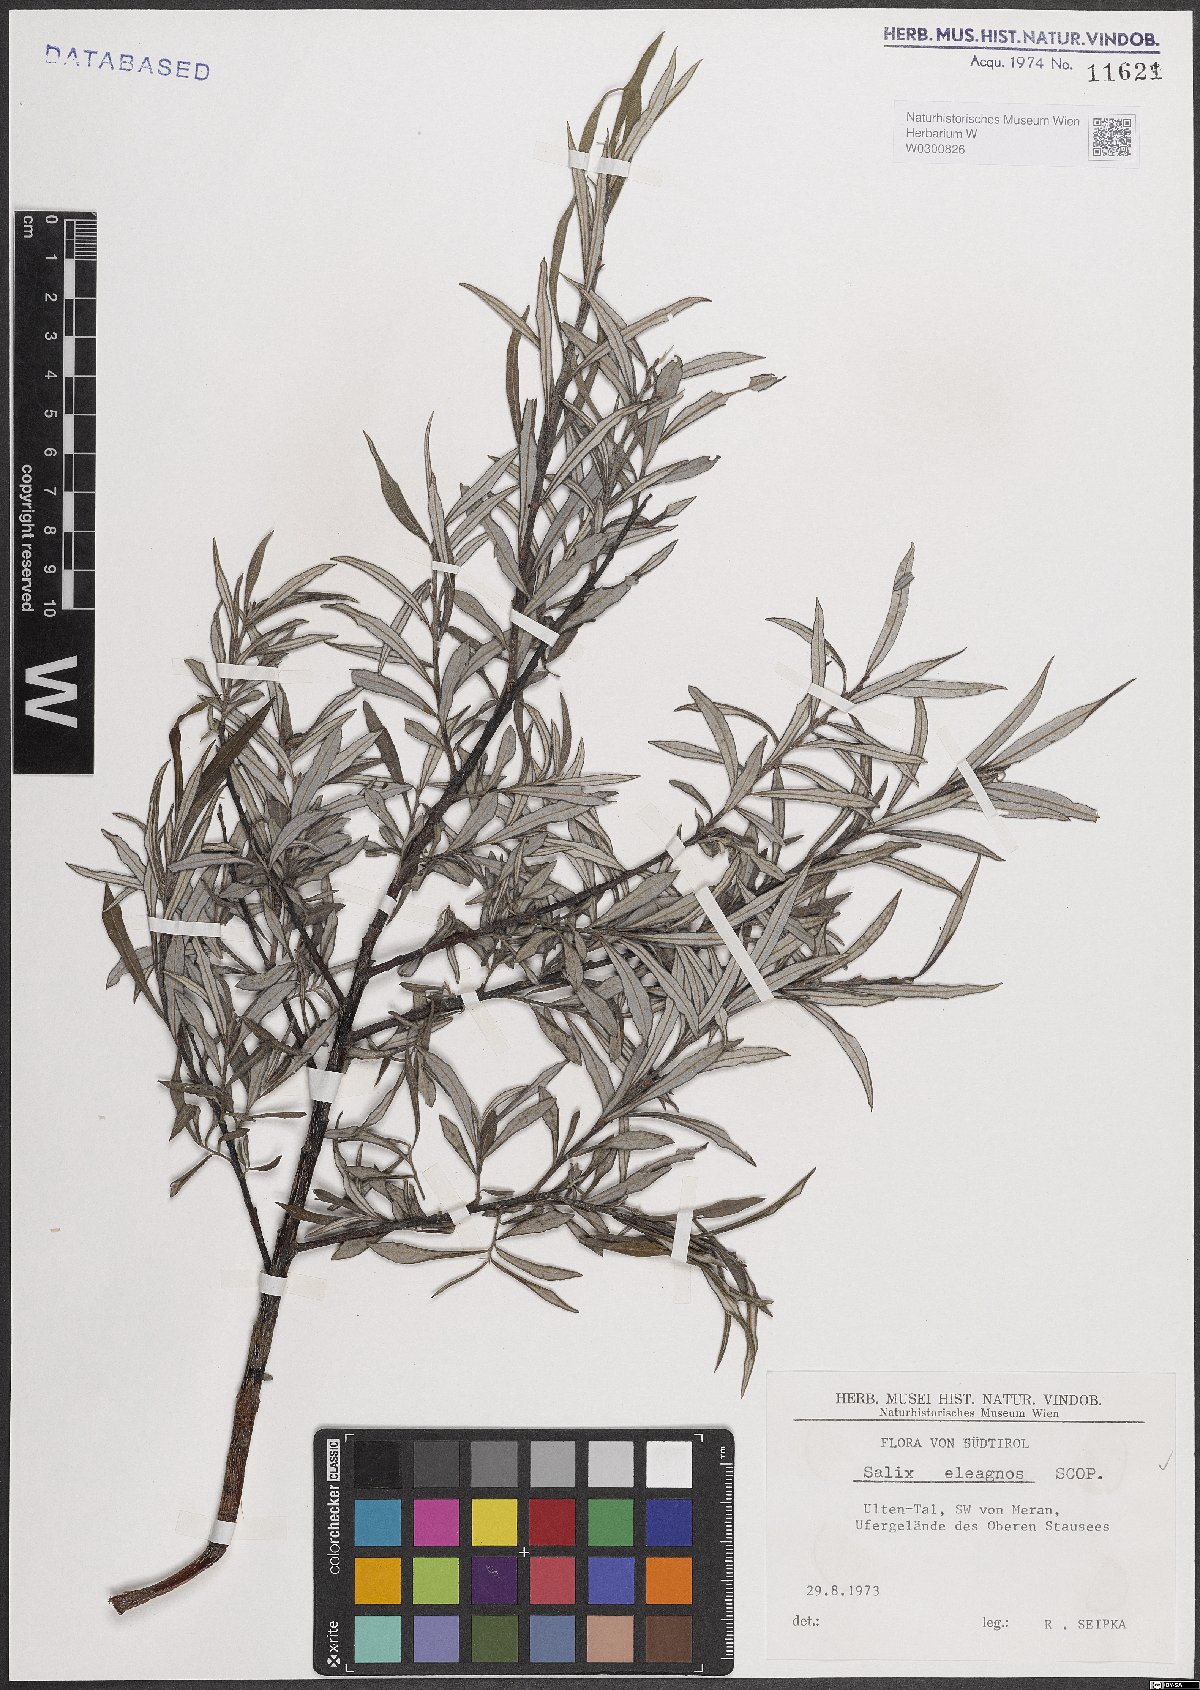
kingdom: Plantae
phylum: Tracheophyta
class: Magnoliopsida
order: Malpighiales
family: Salicaceae
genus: Salix
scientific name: Salix eleagnos
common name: Elaeagnus willow
